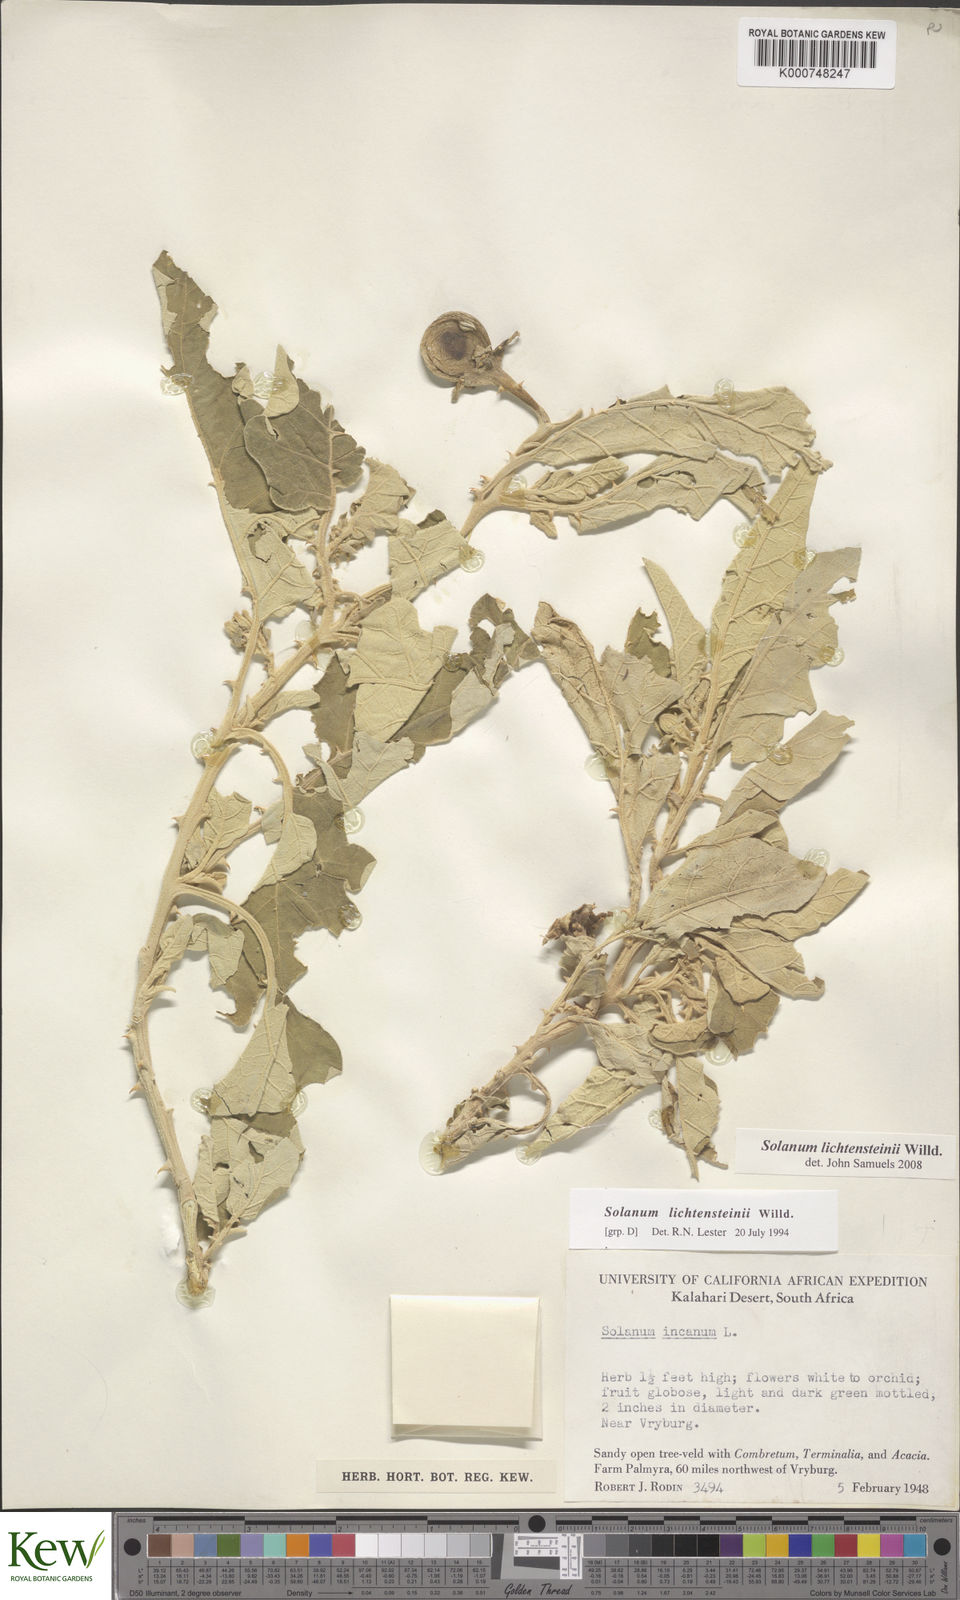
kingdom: Plantae
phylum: Tracheophyta
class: Magnoliopsida
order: Solanales
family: Solanaceae
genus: Solanum
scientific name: Solanum lichtensteinii
